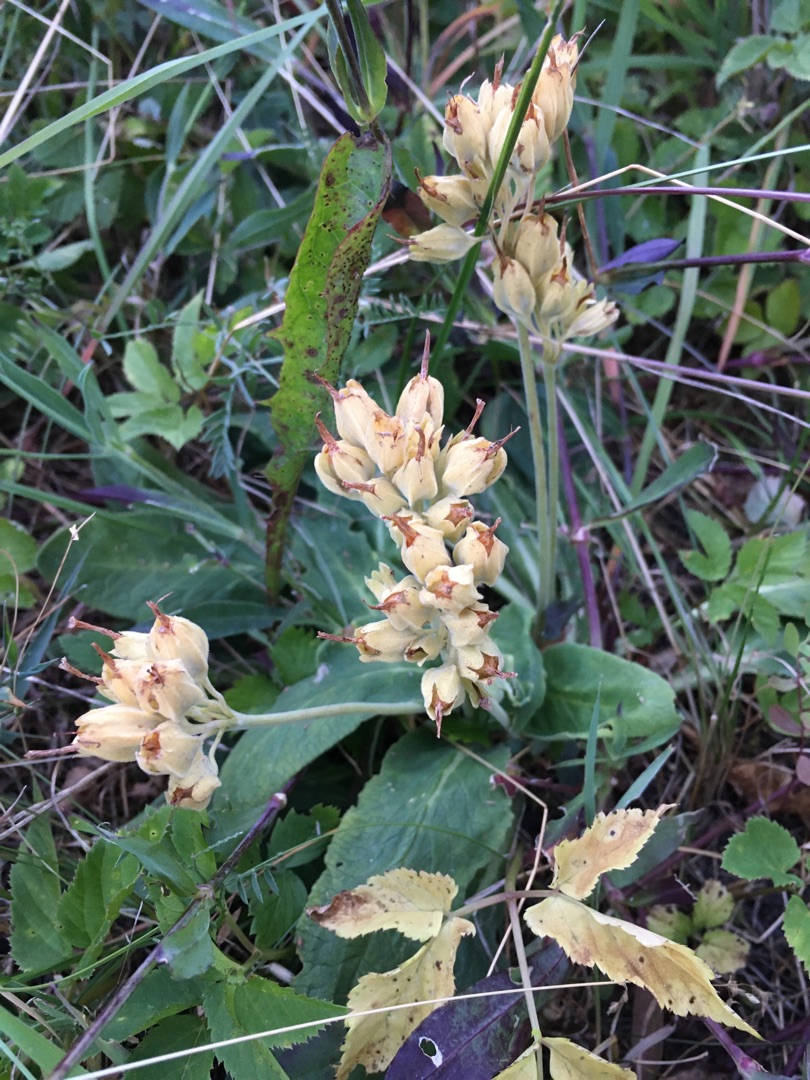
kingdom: Plantae
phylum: Tracheophyta
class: Magnoliopsida
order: Ericales
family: Primulaceae
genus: Primula
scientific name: Primula veris
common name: Hulkravet kodriver
